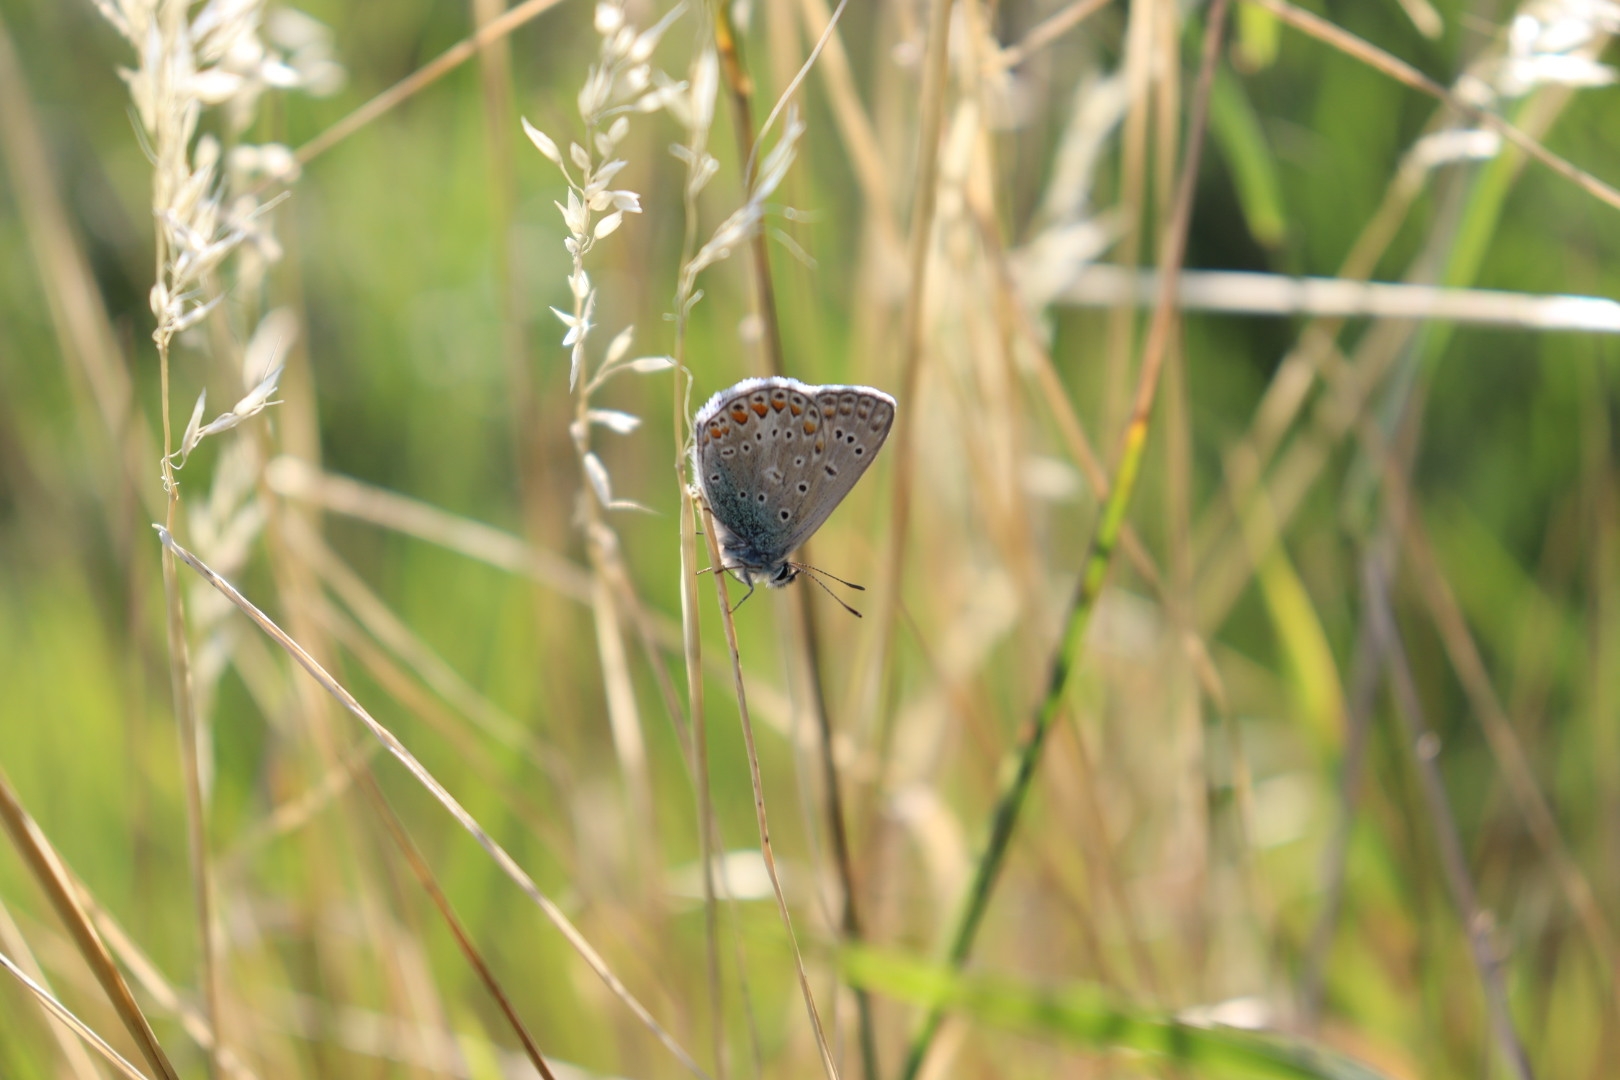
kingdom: Animalia
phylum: Arthropoda
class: Insecta
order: Lepidoptera
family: Lycaenidae
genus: Polyommatus
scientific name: Polyommatus icarus
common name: Almindelig blåfugl
